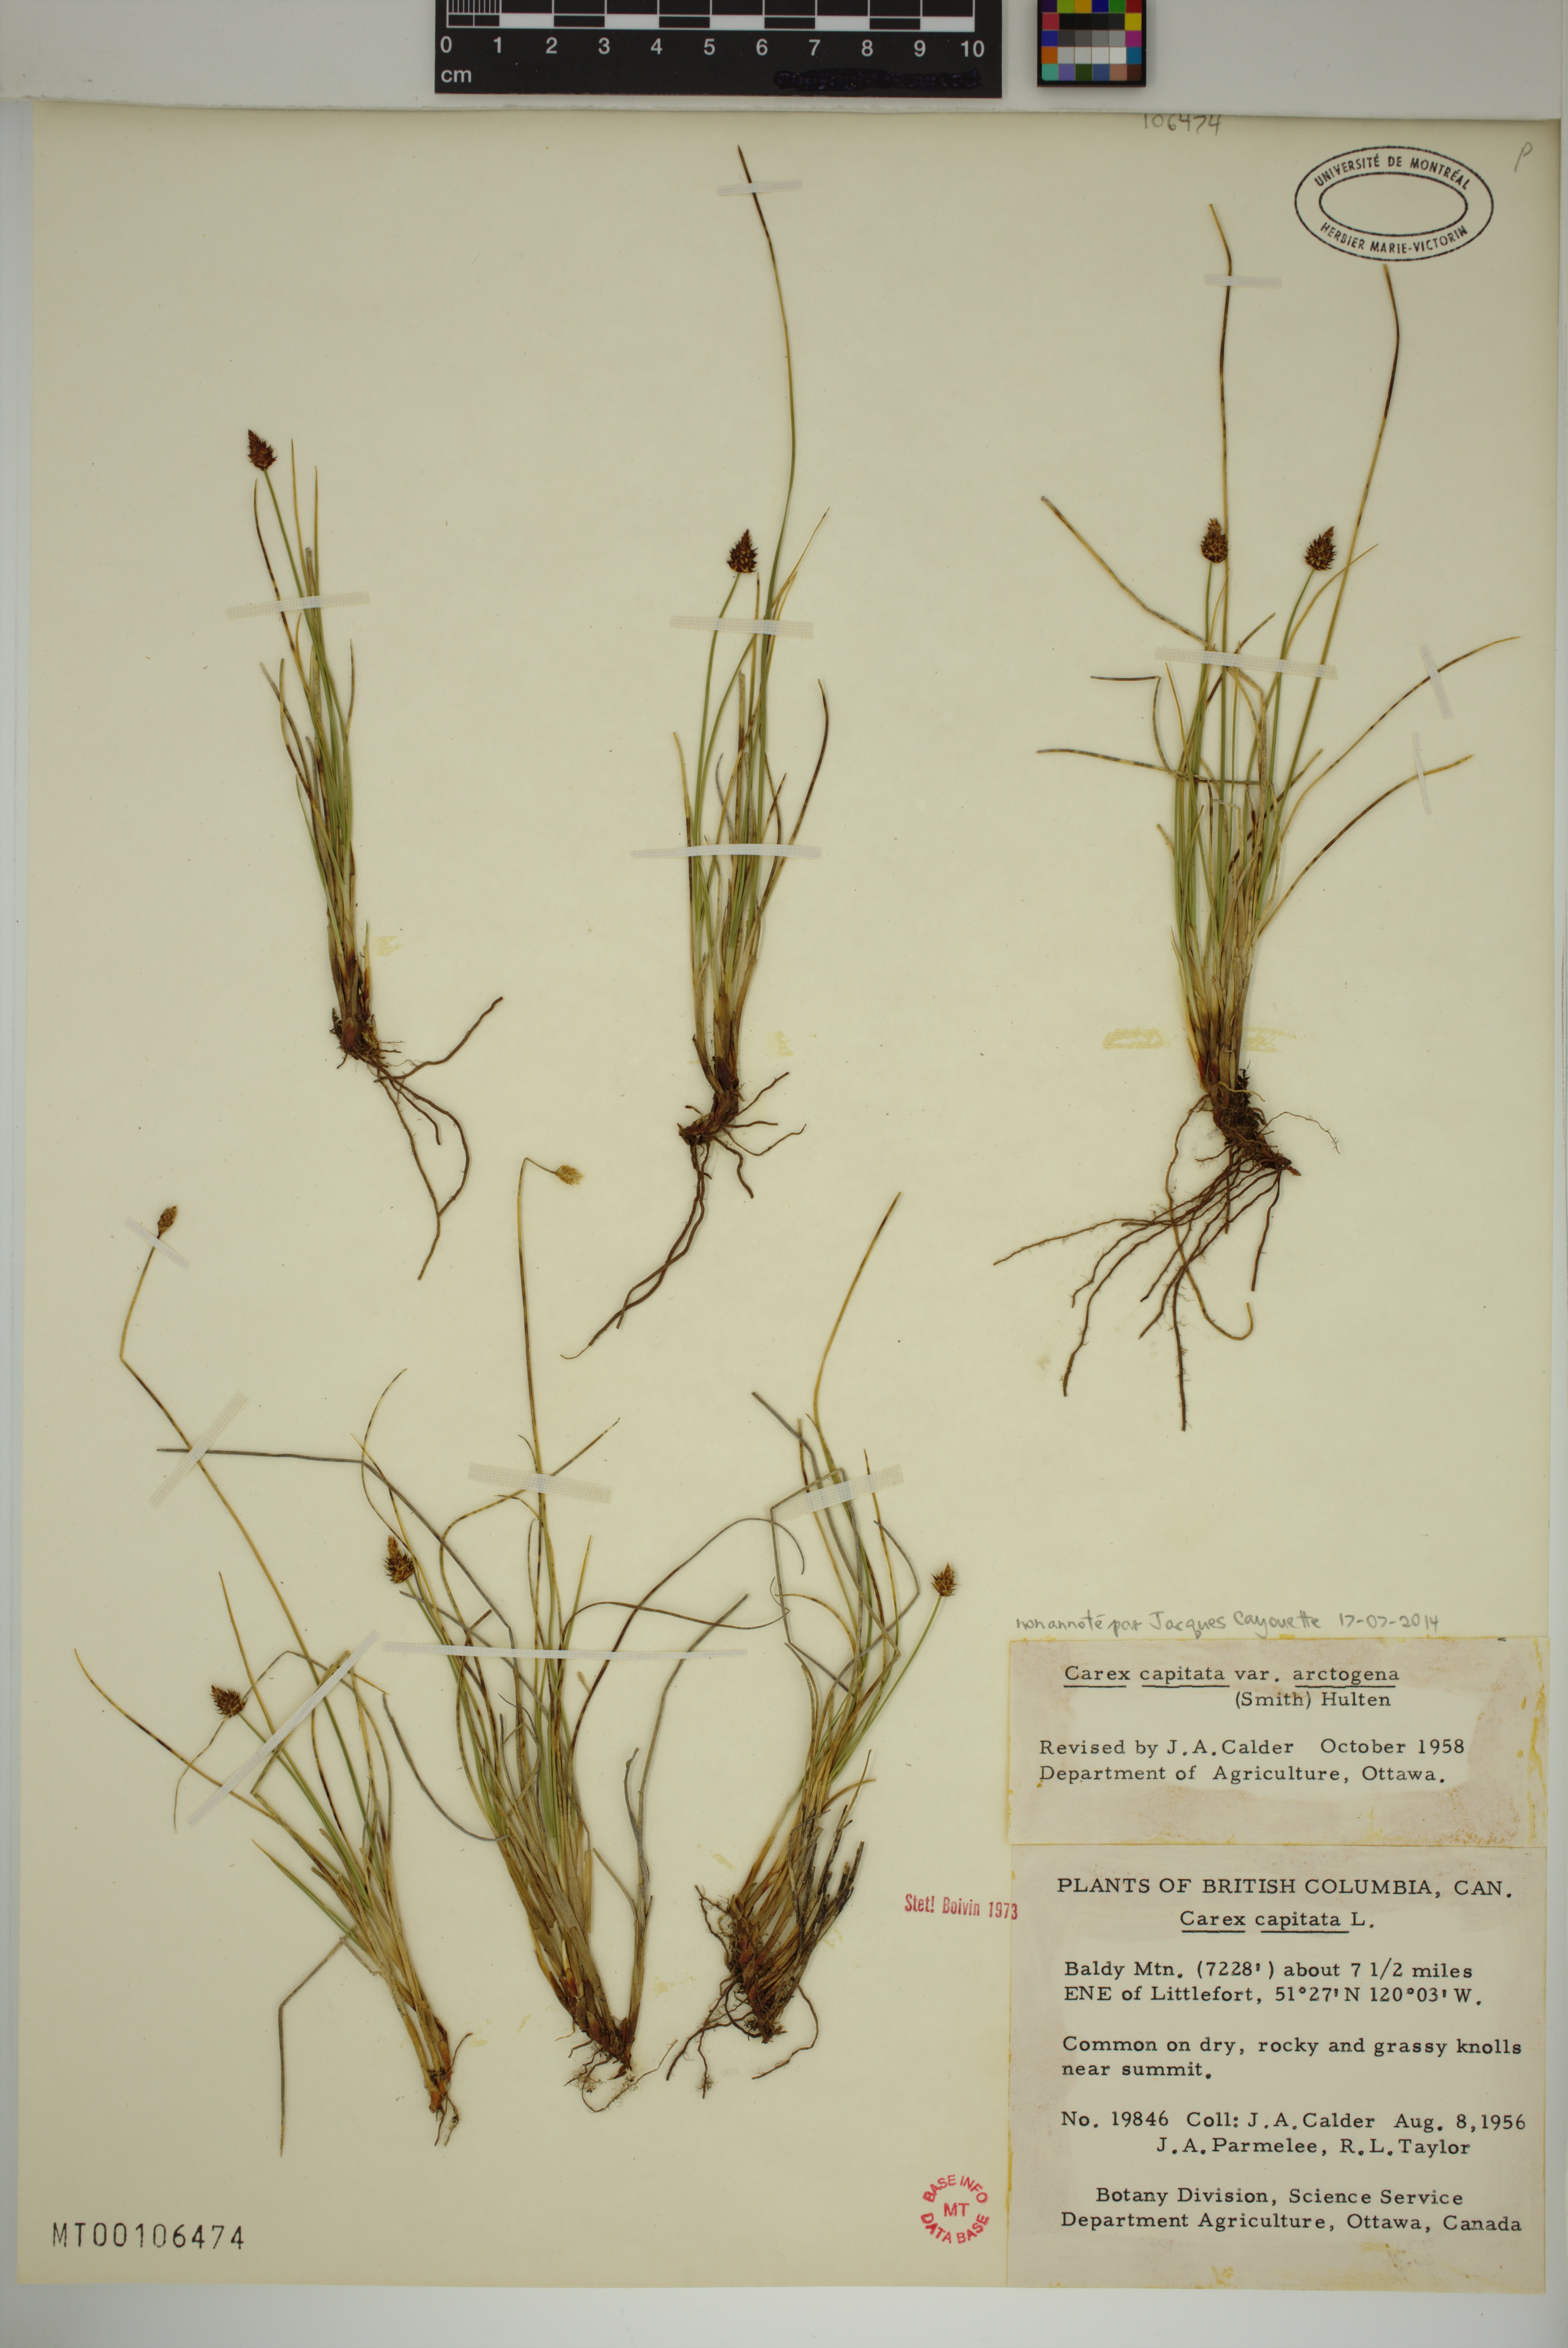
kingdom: Plantae
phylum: Tracheophyta
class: Liliopsida
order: Poales
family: Cyperaceae
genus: Carex
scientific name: Carex capitata
